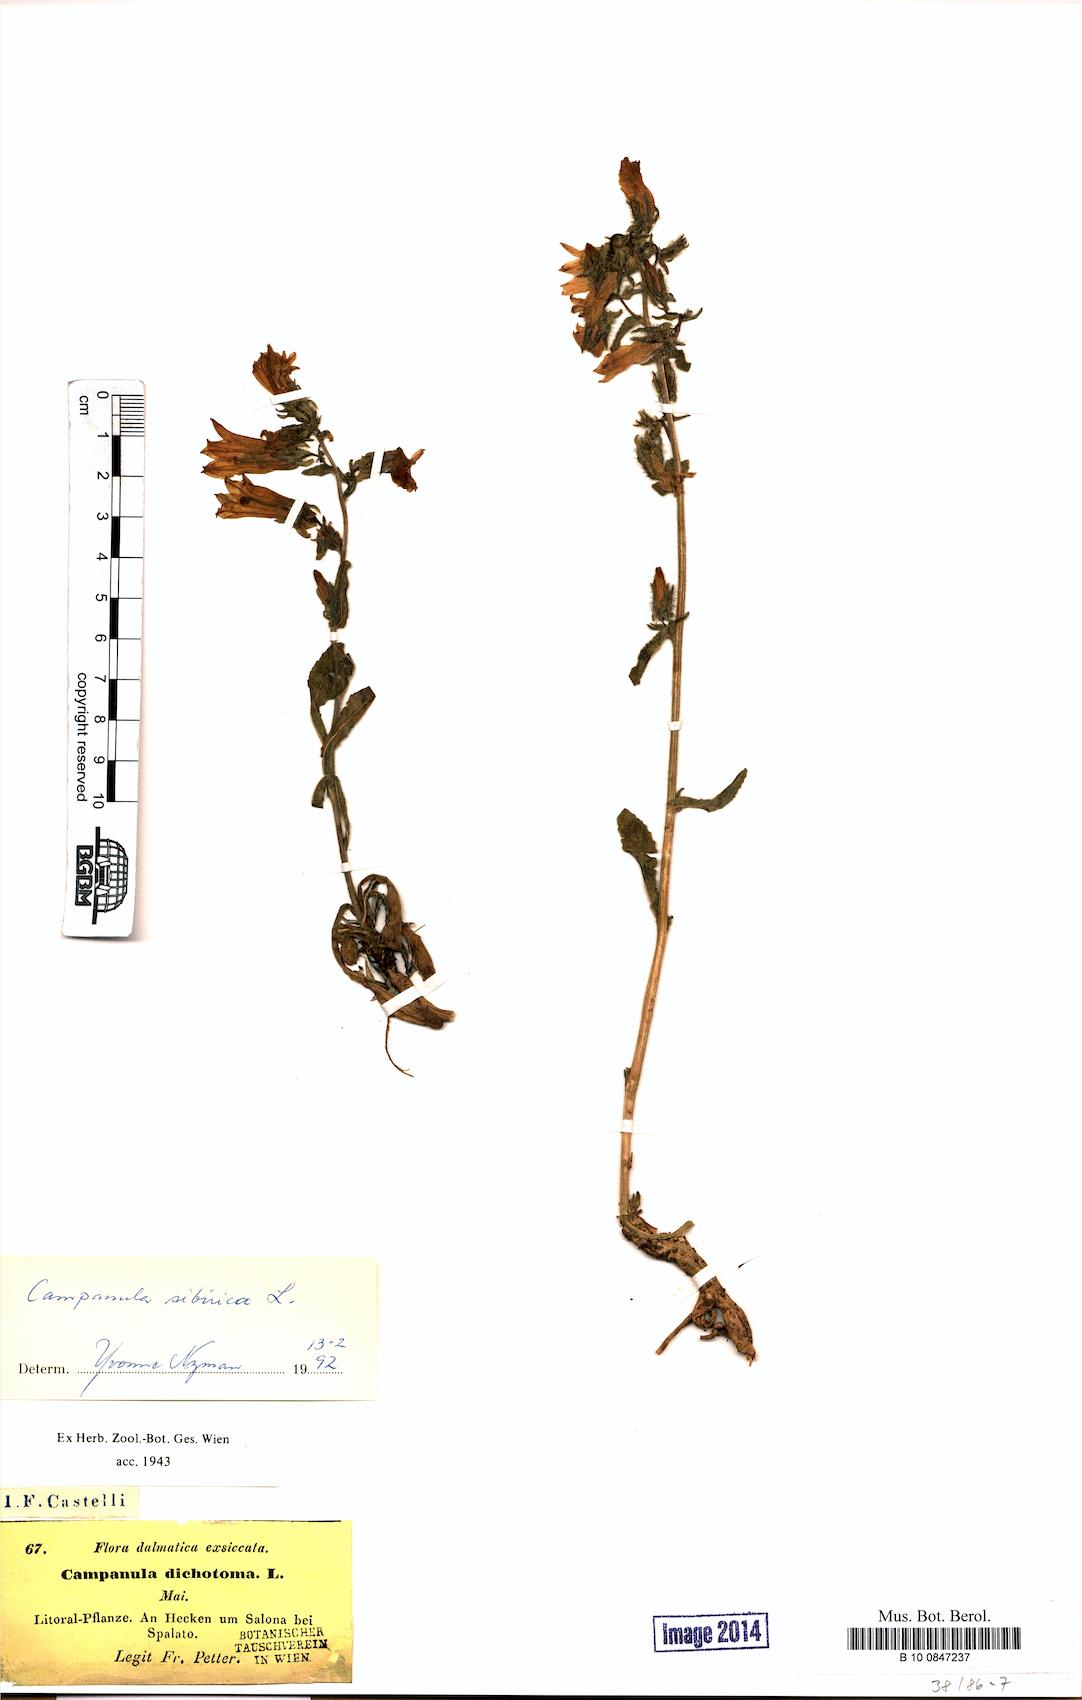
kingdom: Plantae
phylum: Tracheophyta
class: Magnoliopsida
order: Asterales
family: Campanulaceae
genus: Campanula
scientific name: Campanula sibirica
